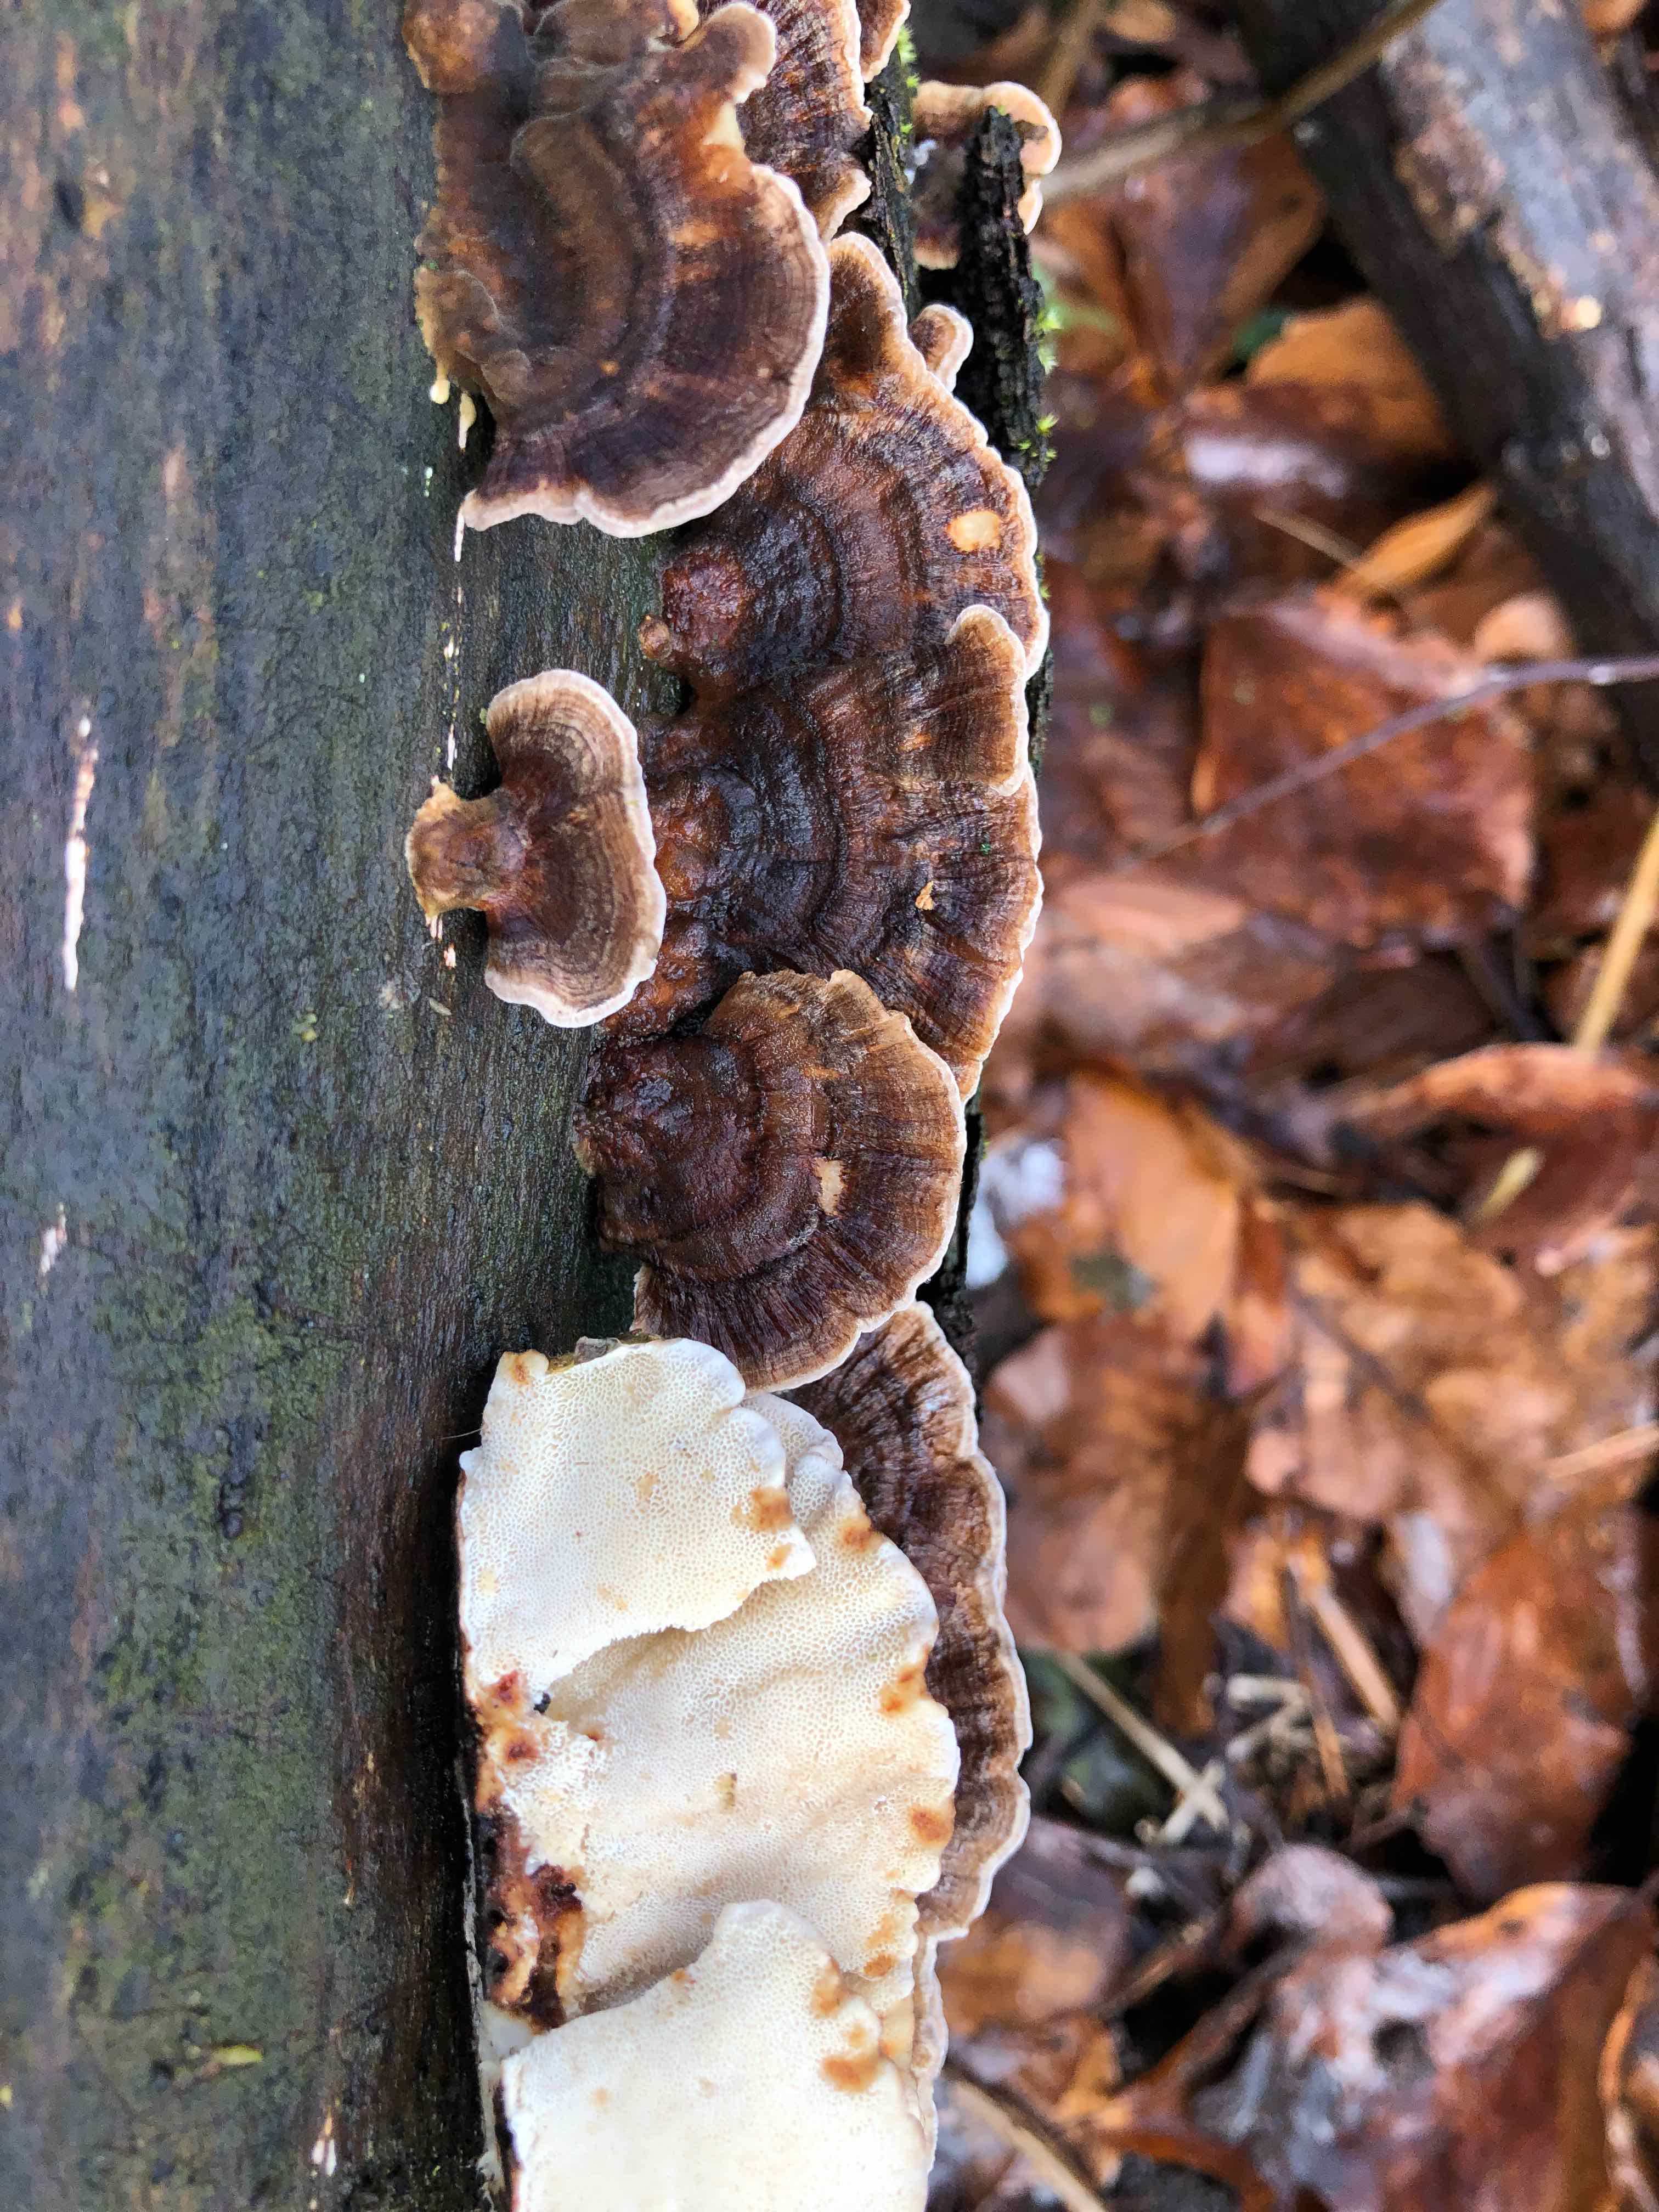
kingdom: Fungi
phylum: Basidiomycota
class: Agaricomycetes
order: Polyporales
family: Polyporaceae
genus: Trametes
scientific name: Trametes versicolor
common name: broget læderporesvamp
